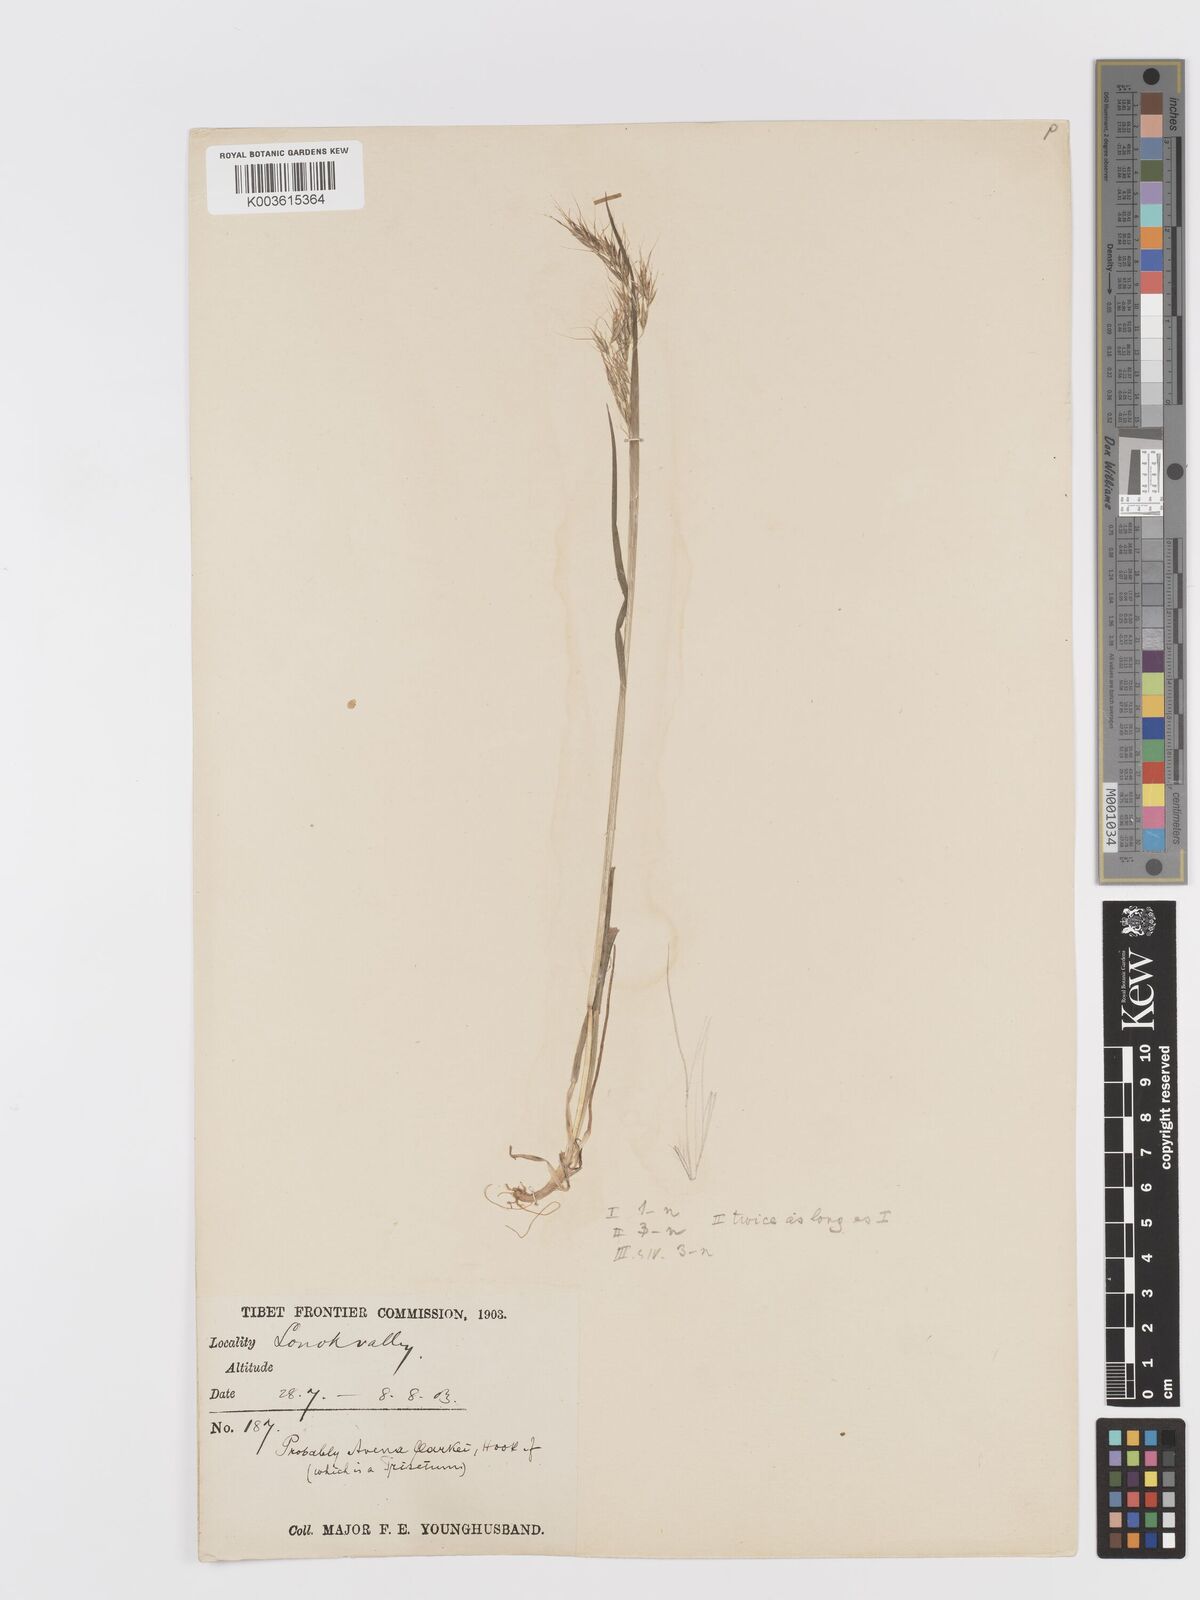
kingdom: Plantae
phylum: Tracheophyta
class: Liliopsida
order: Poales
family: Poaceae
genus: Sibirotrisetum
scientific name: Sibirotrisetum scitulum
